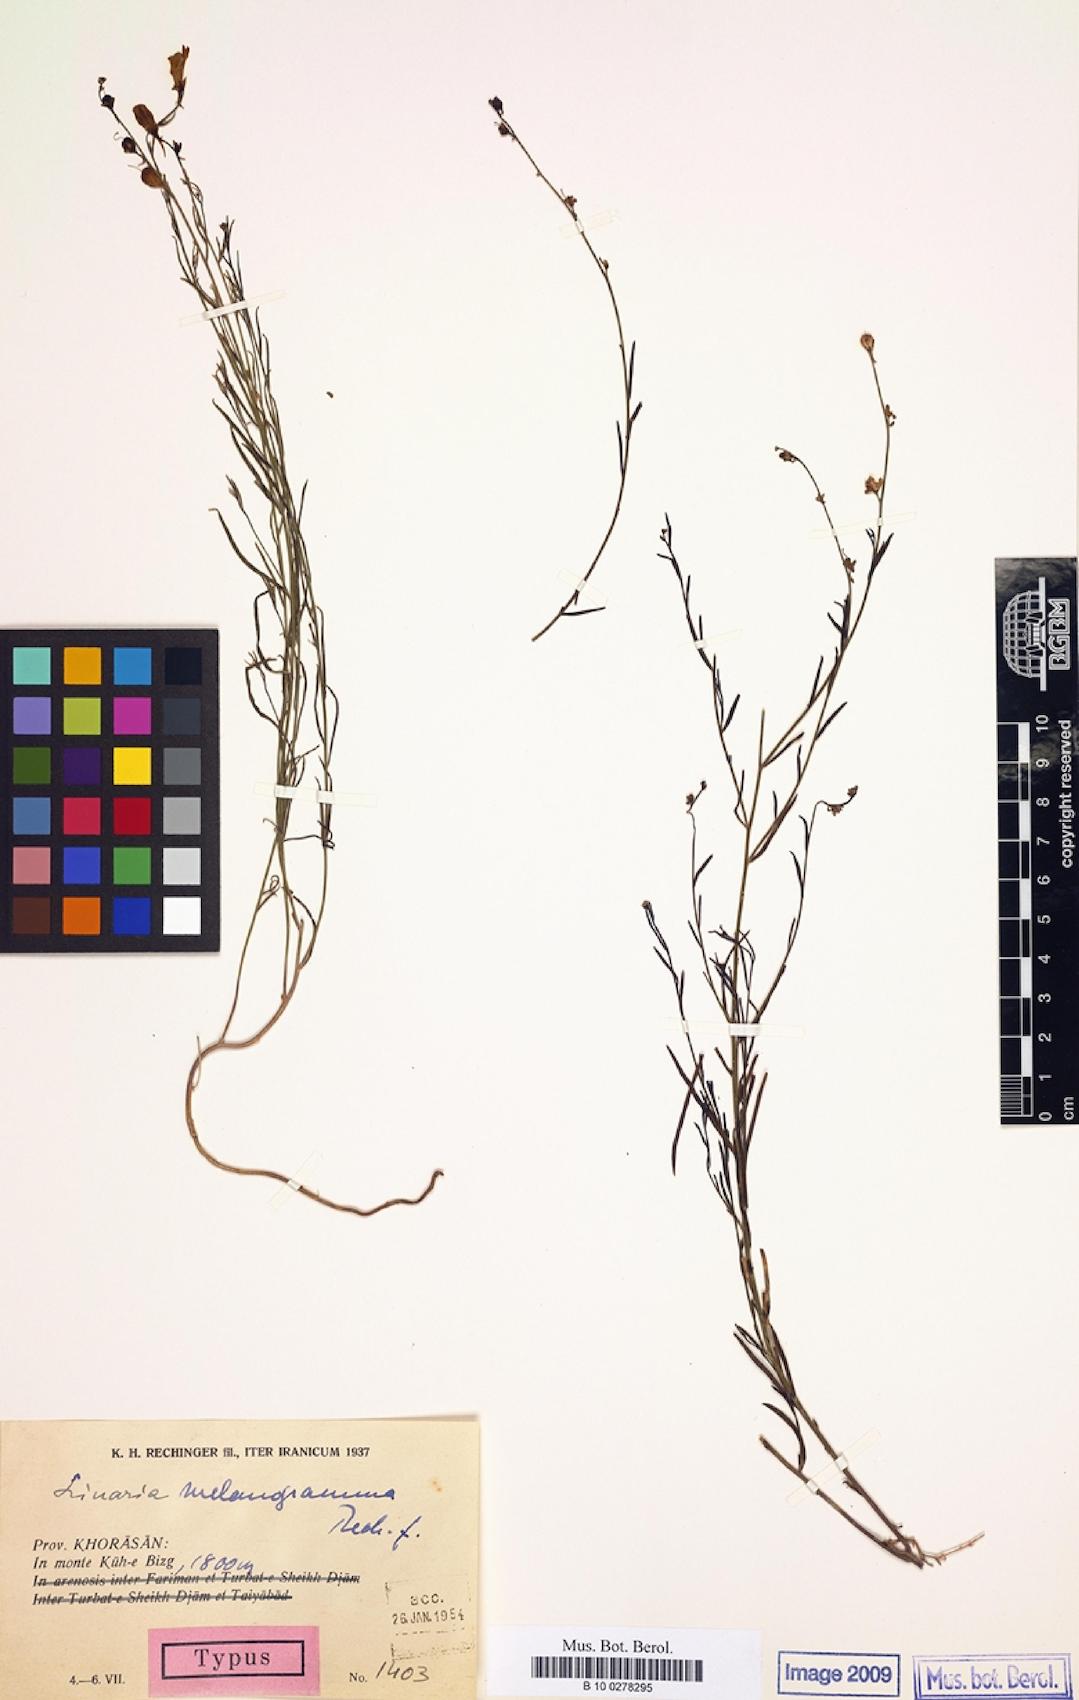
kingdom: Plantae
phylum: Tracheophyta
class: Magnoliopsida
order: Lamiales
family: Plantaginaceae
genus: Linaria
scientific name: Linaria melanogramma
